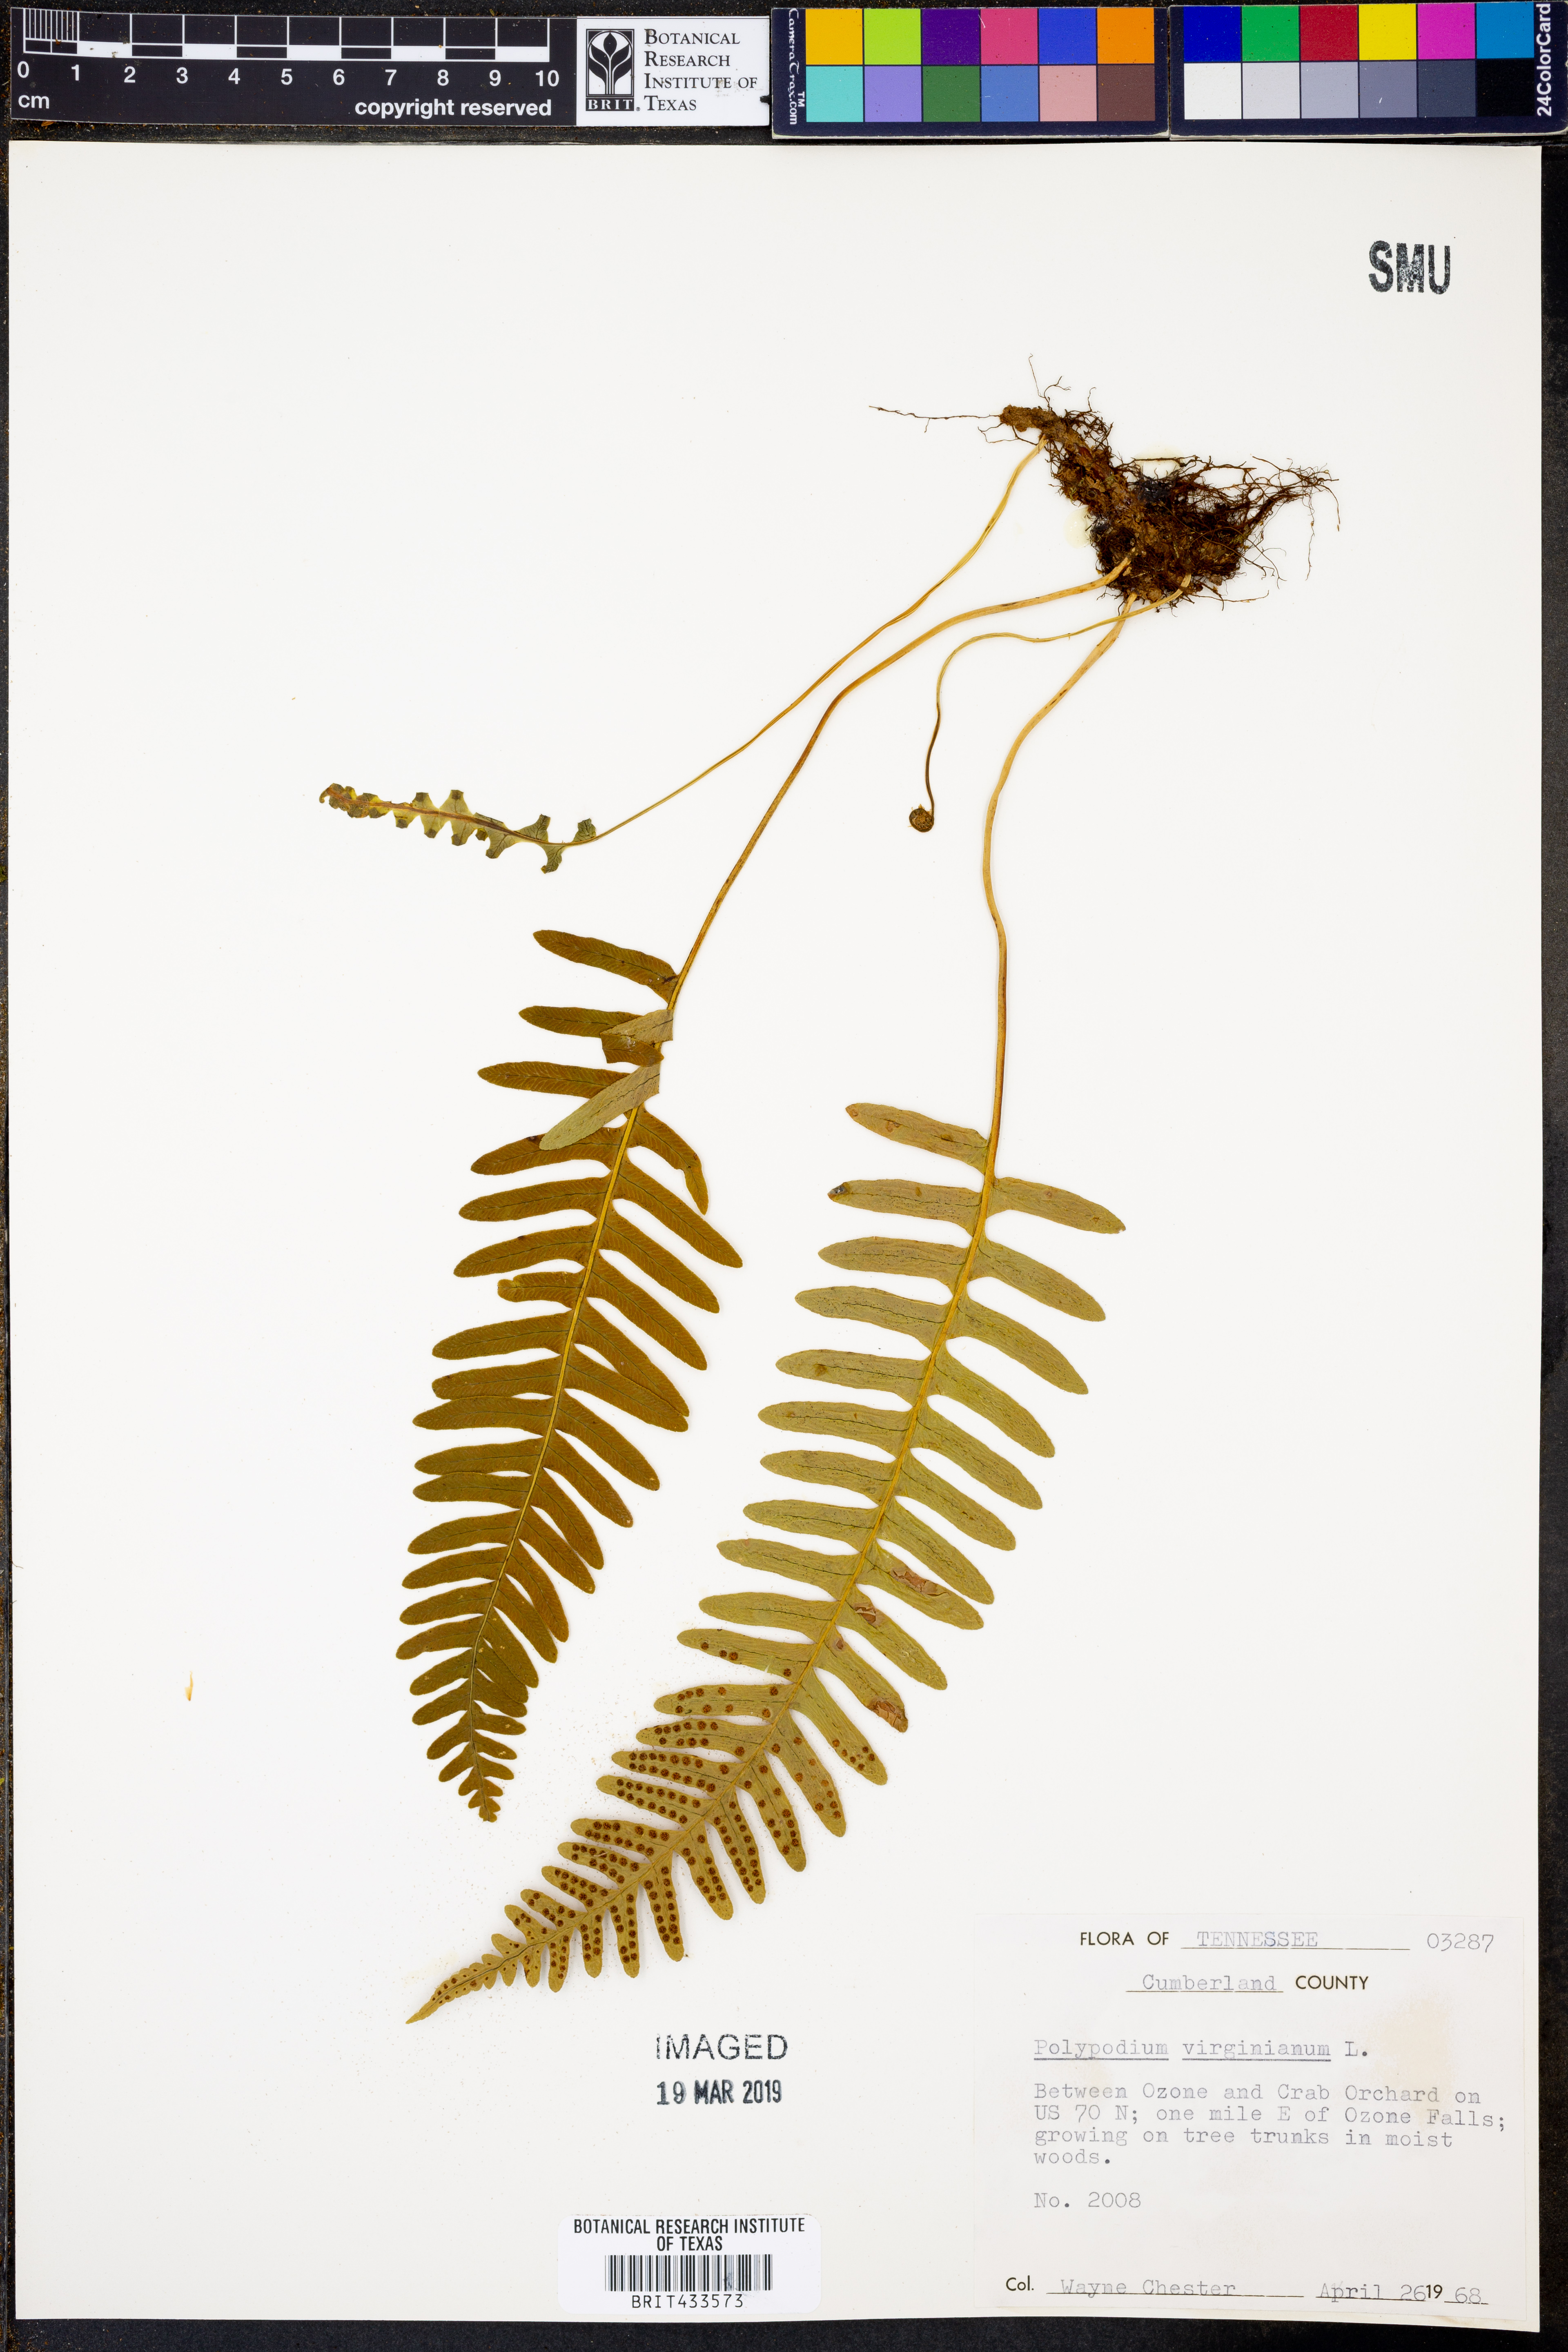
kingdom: Plantae
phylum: Tracheophyta
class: Polypodiopsida
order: Polypodiales
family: Polypodiaceae
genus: Polypodium
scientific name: Polypodium virginianum
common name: American wall fern
